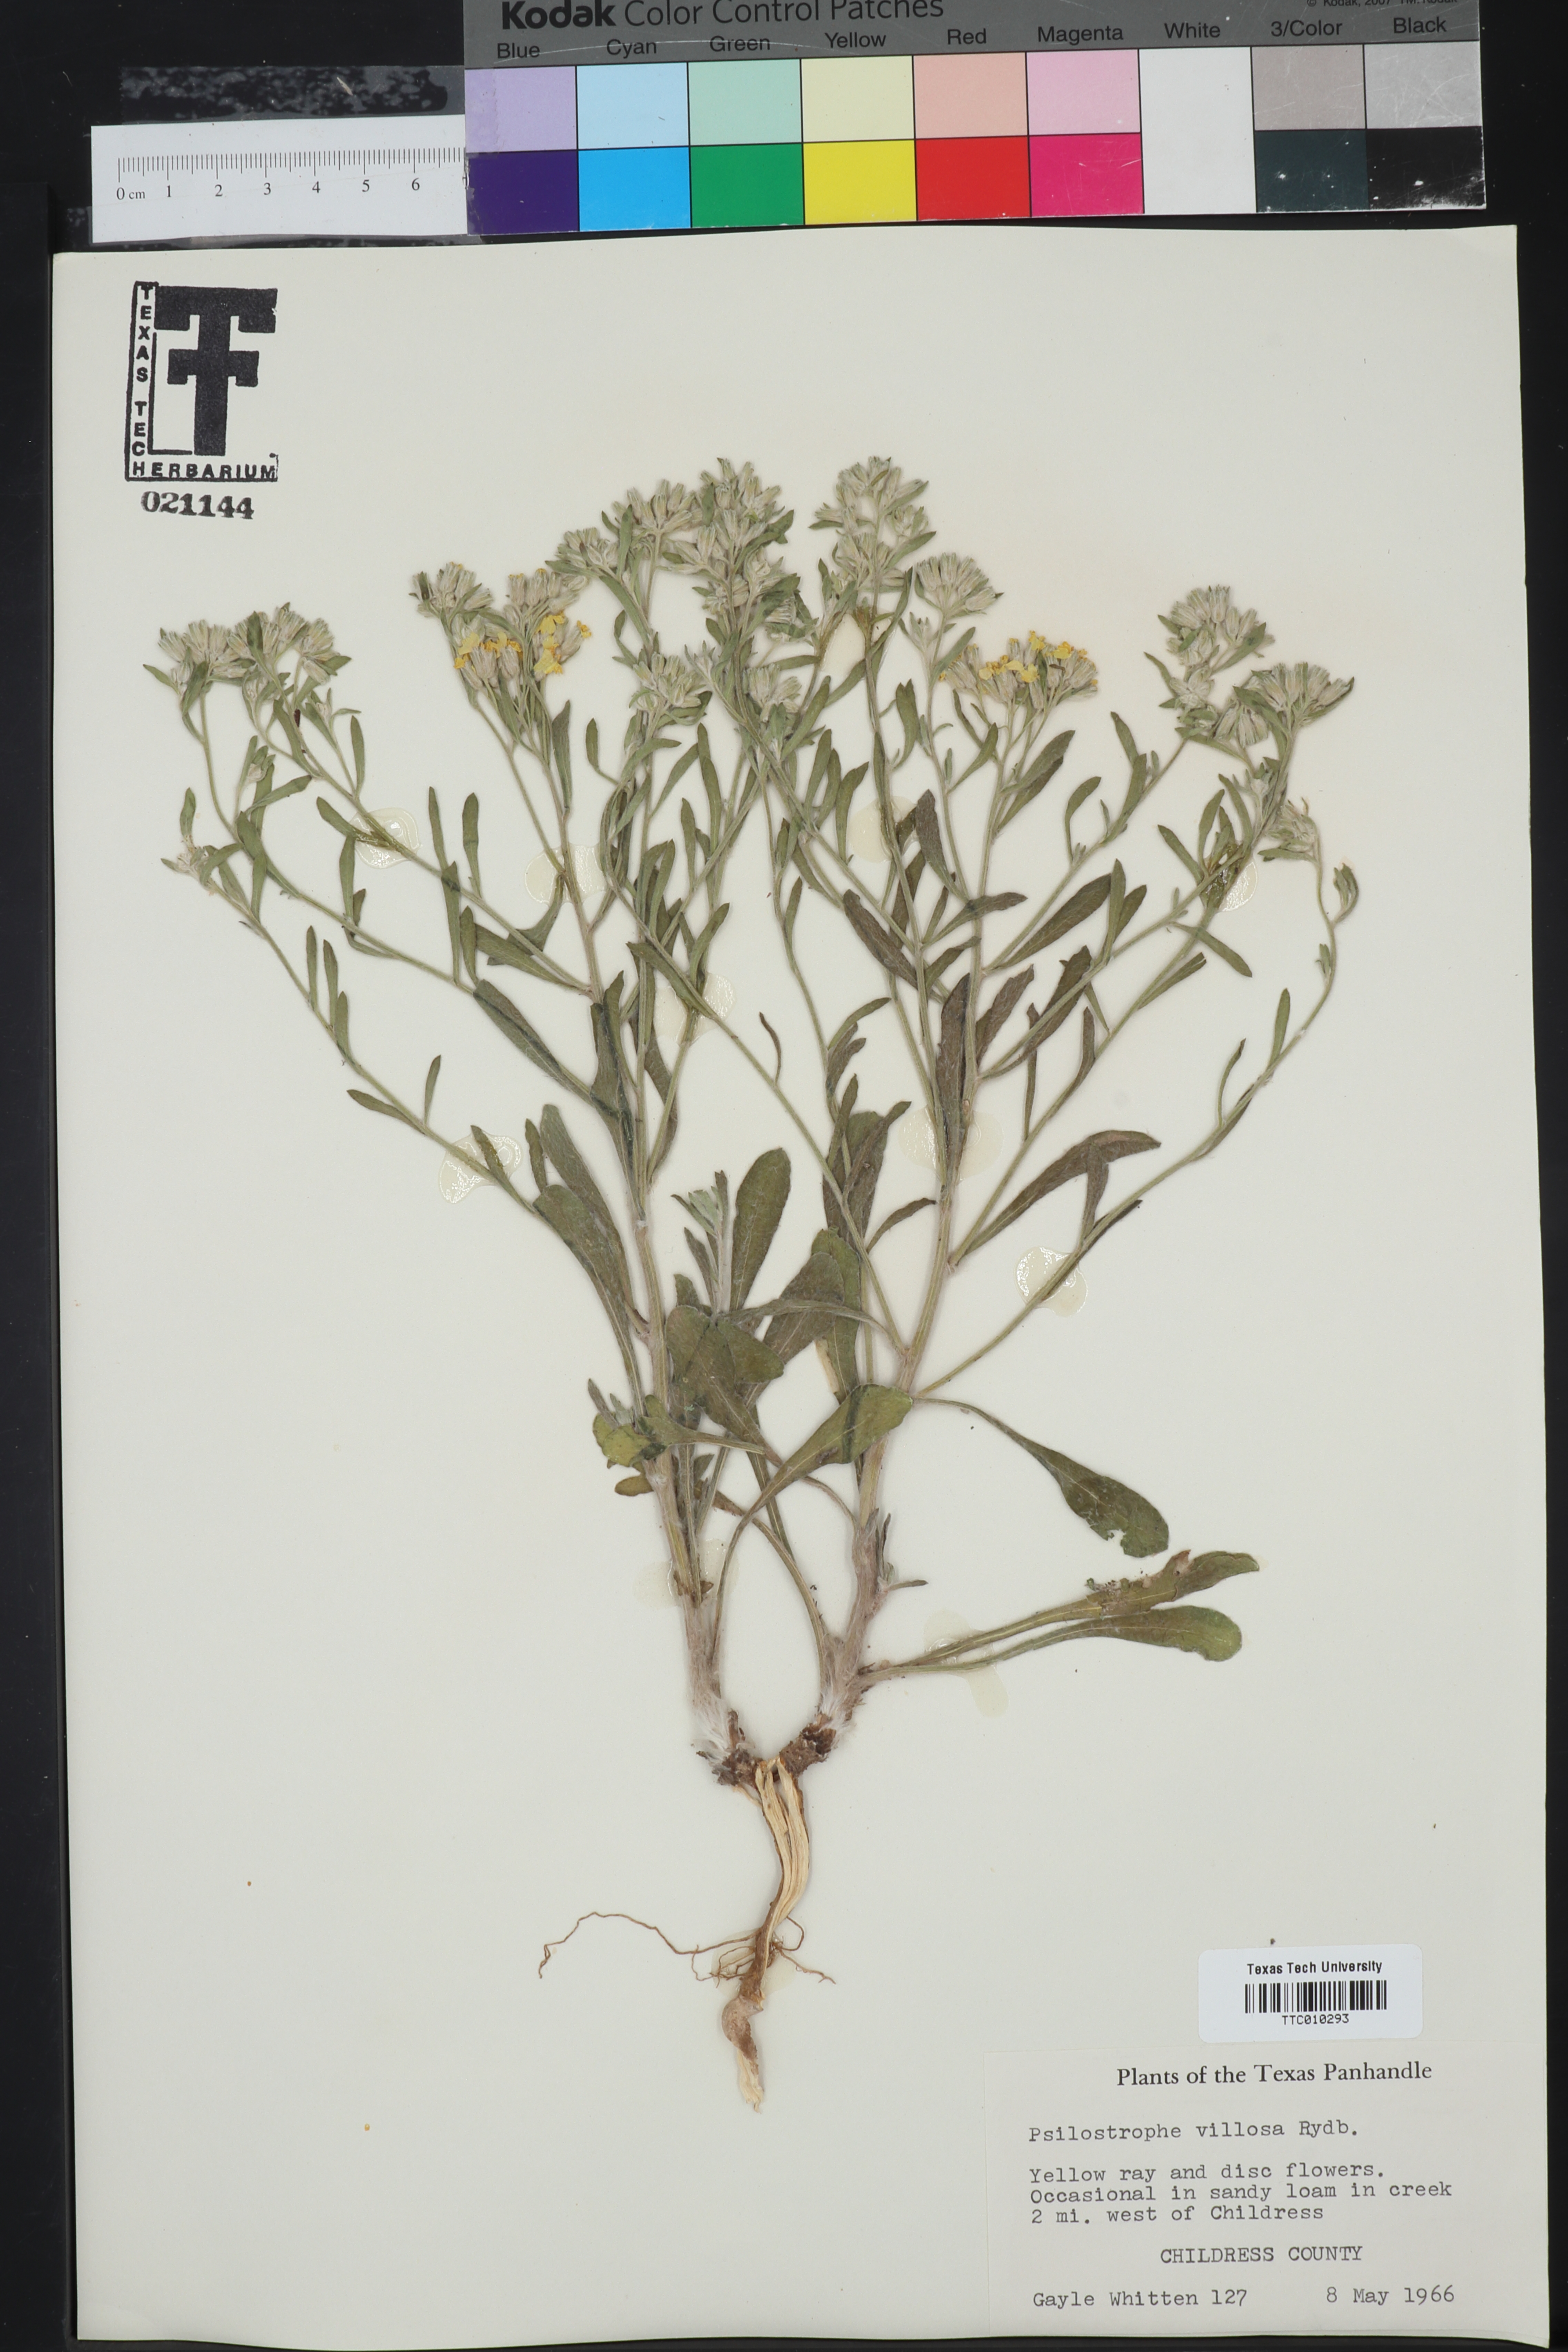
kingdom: Plantae
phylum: Tracheophyta
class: Magnoliopsida
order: Asterales
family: Asteraceae
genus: Psilostrophe
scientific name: Psilostrophe villosa
